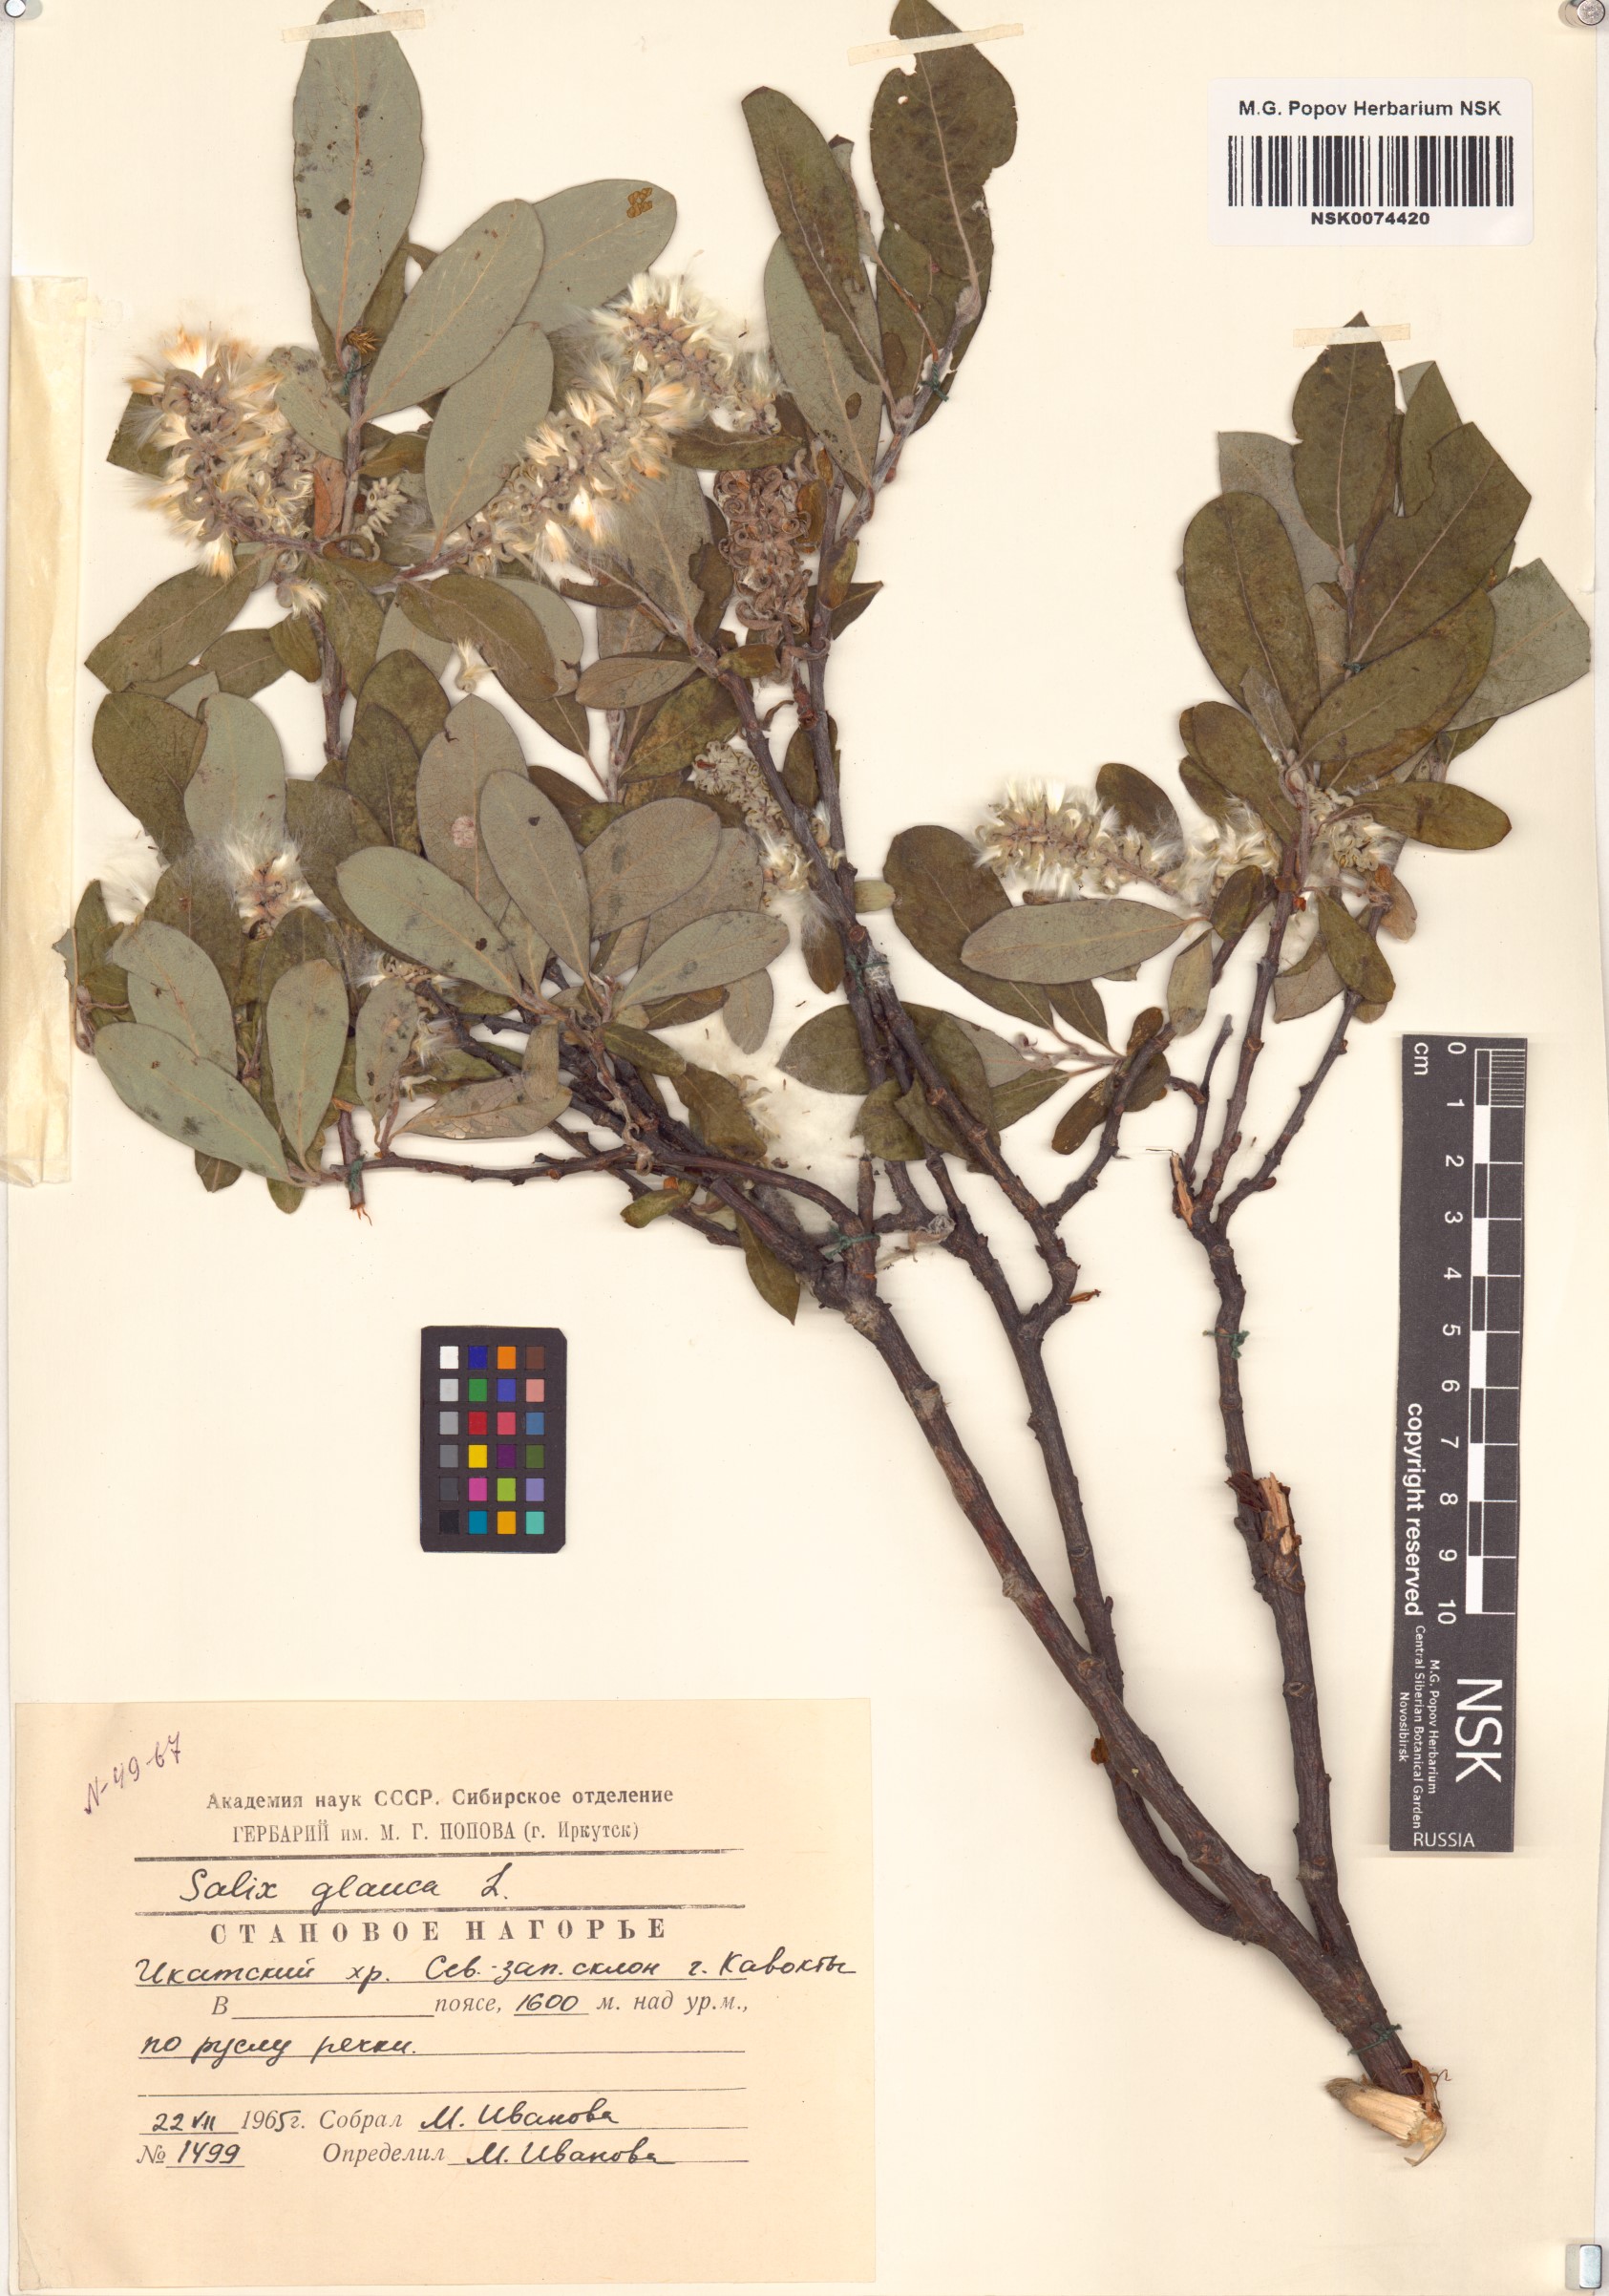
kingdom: Plantae
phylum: Tracheophyta
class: Magnoliopsida
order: Malpighiales
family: Salicaceae
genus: Salix
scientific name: Salix glauca
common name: Glaucous willow
